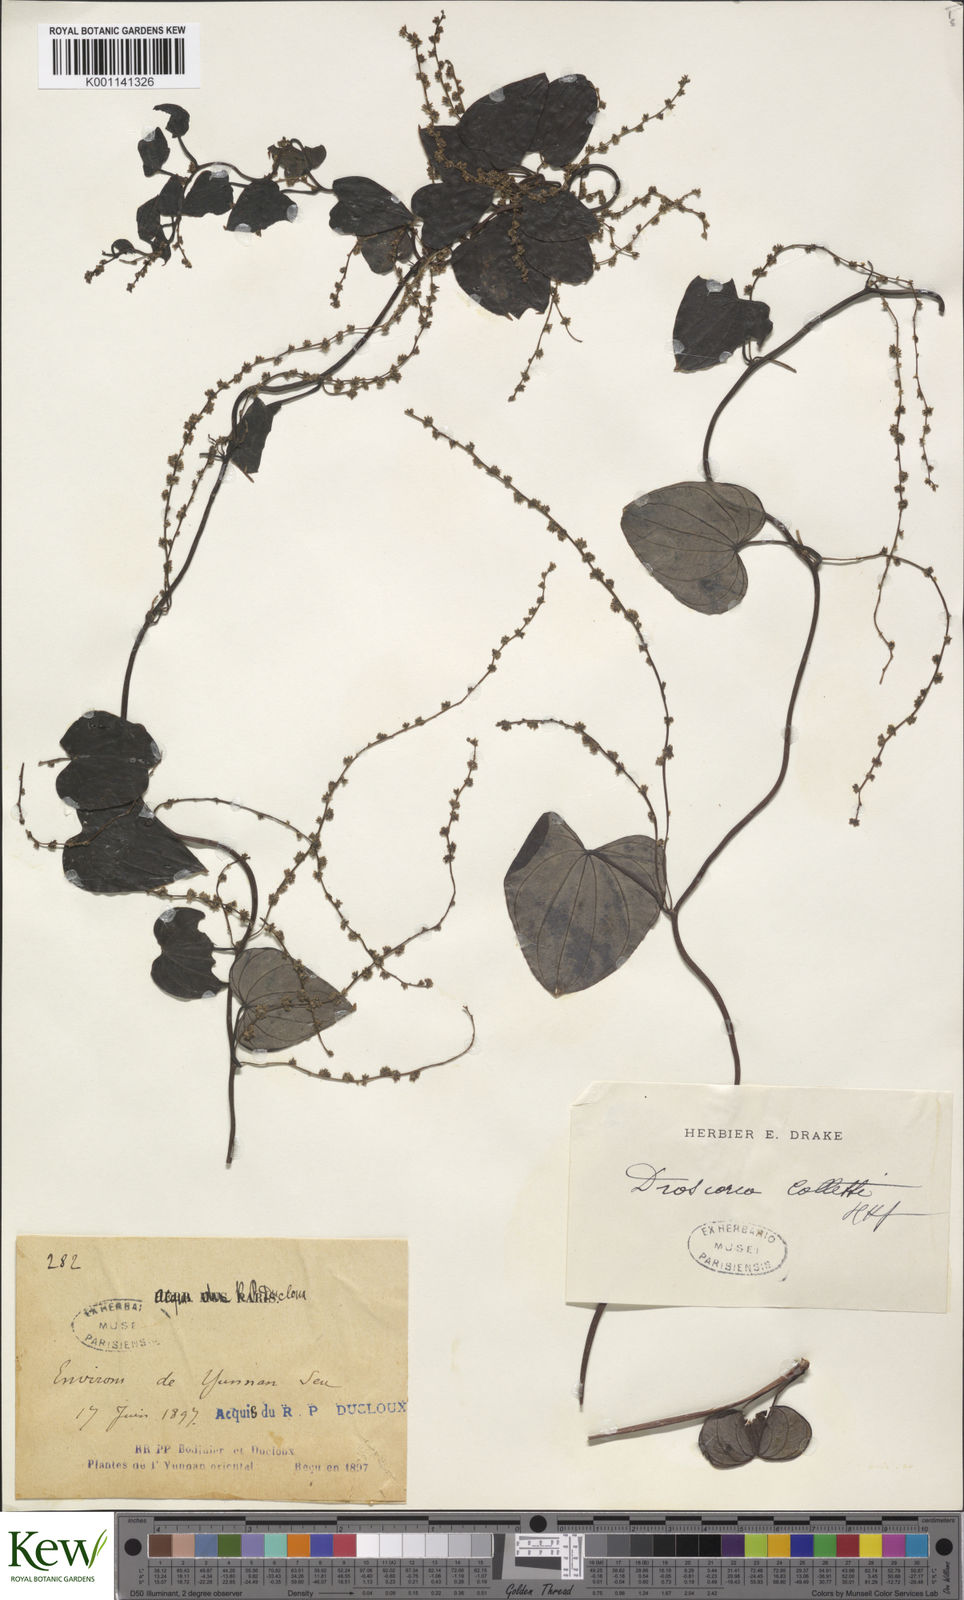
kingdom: Plantae
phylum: Tracheophyta
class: Liliopsida
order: Dioscoreales
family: Dioscoreaceae
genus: Dioscorea
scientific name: Dioscorea collettii
